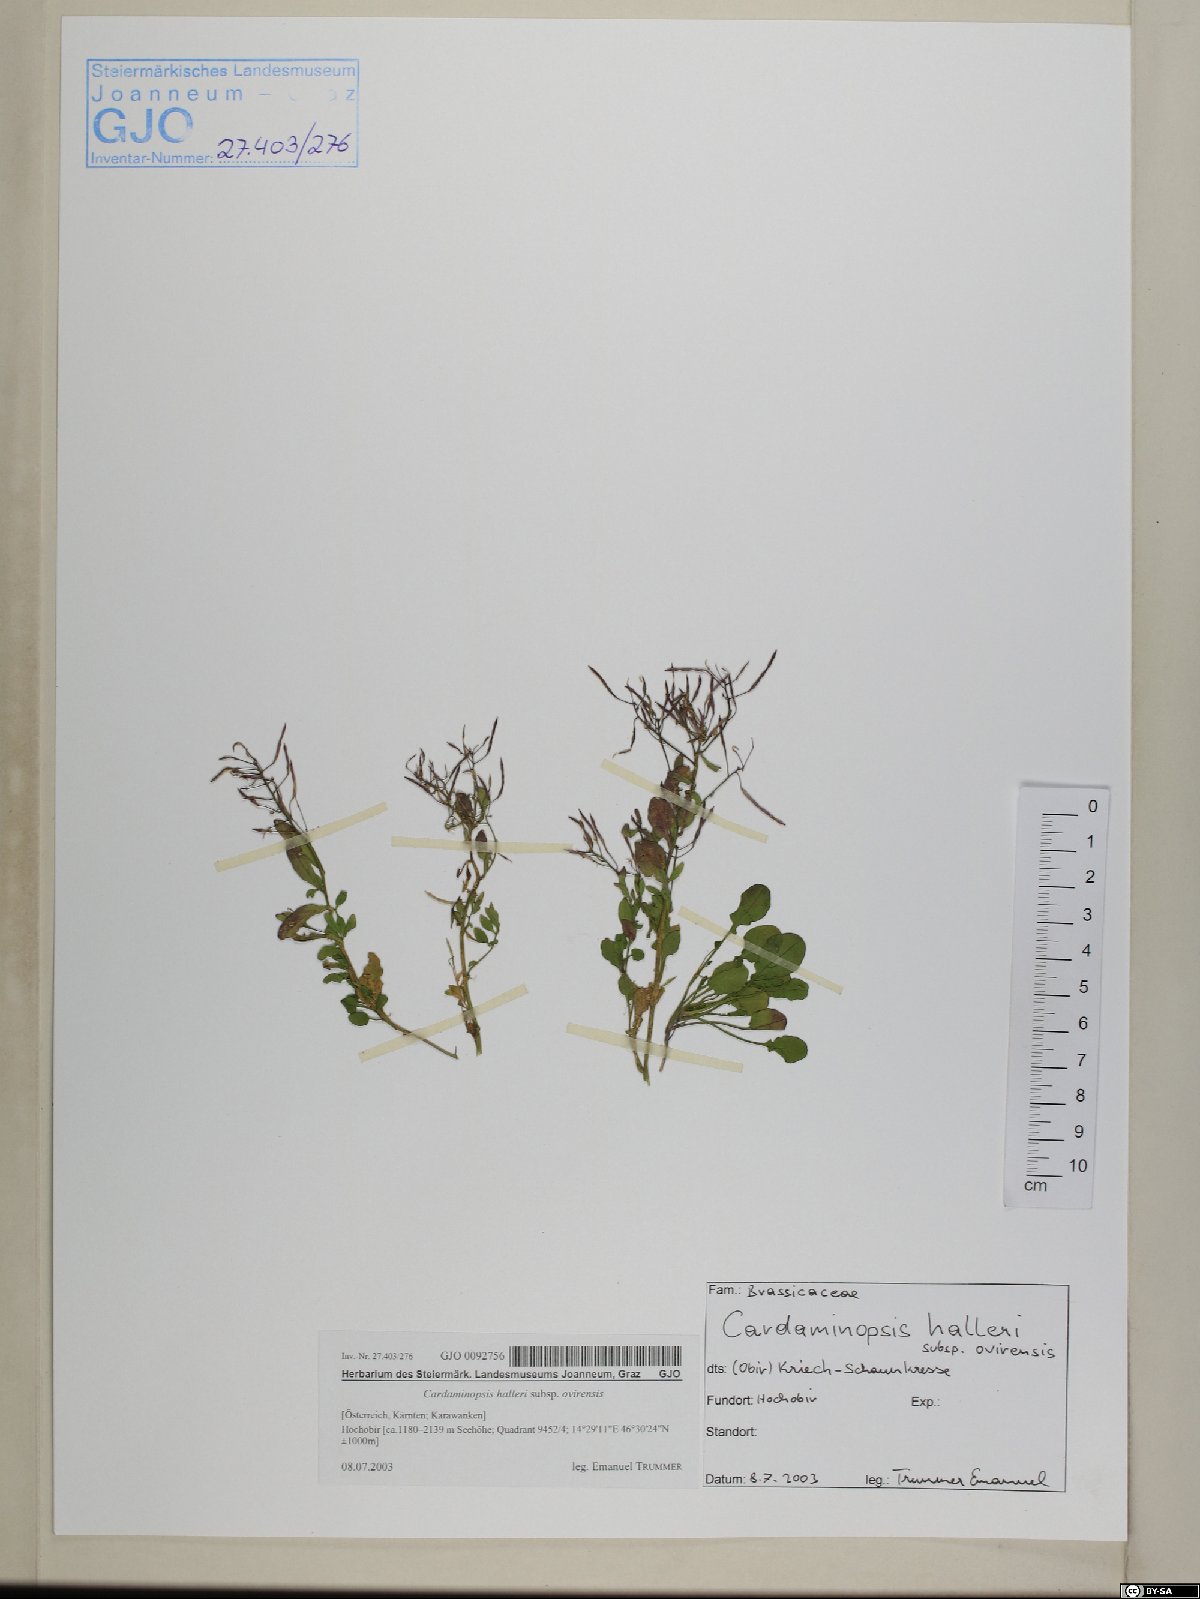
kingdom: Plantae
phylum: Tracheophyta
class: Magnoliopsida
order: Brassicales
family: Brassicaceae
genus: Arabidopsis
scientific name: Arabidopsis halleri
